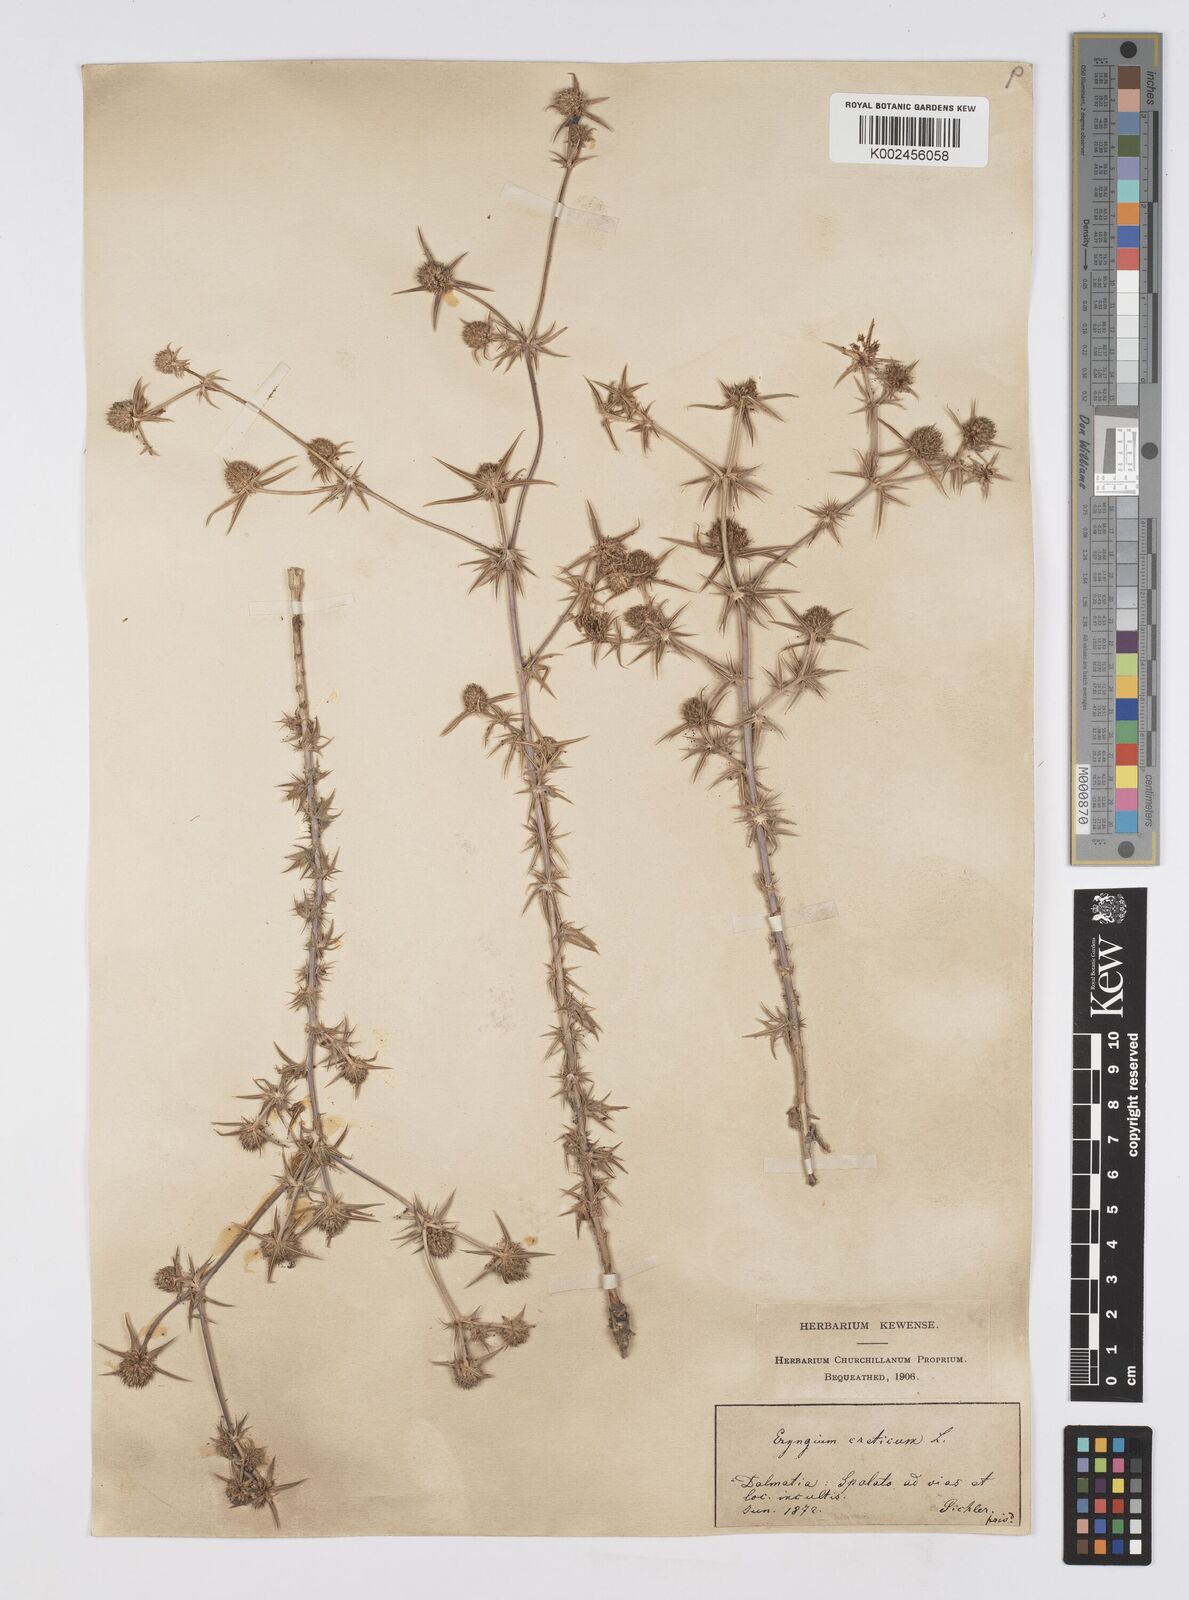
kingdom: Plantae
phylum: Tracheophyta
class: Magnoliopsida
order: Apiales
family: Apiaceae
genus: Eryngium
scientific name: Eryngium creticum
